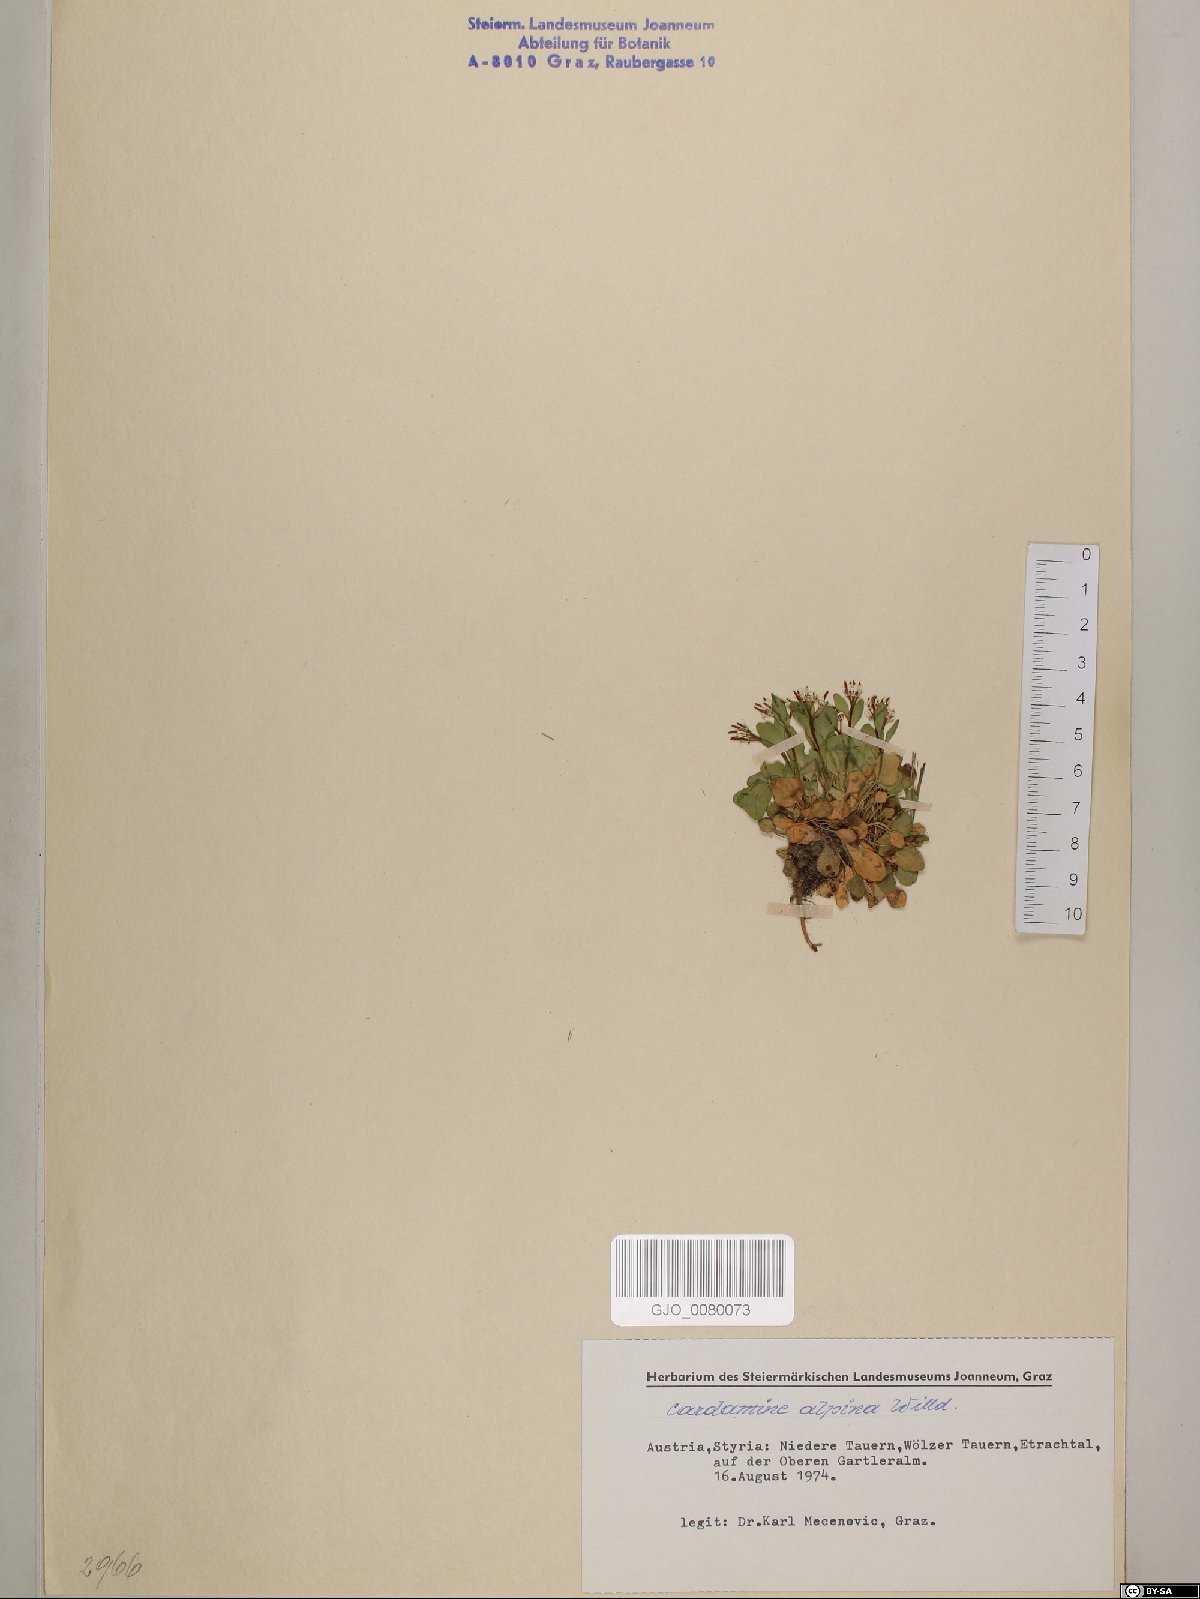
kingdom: Plantae
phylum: Tracheophyta
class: Magnoliopsida
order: Brassicales
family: Brassicaceae
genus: Cardamine
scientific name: Cardamine bellidifolia
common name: Alpine bittercress
